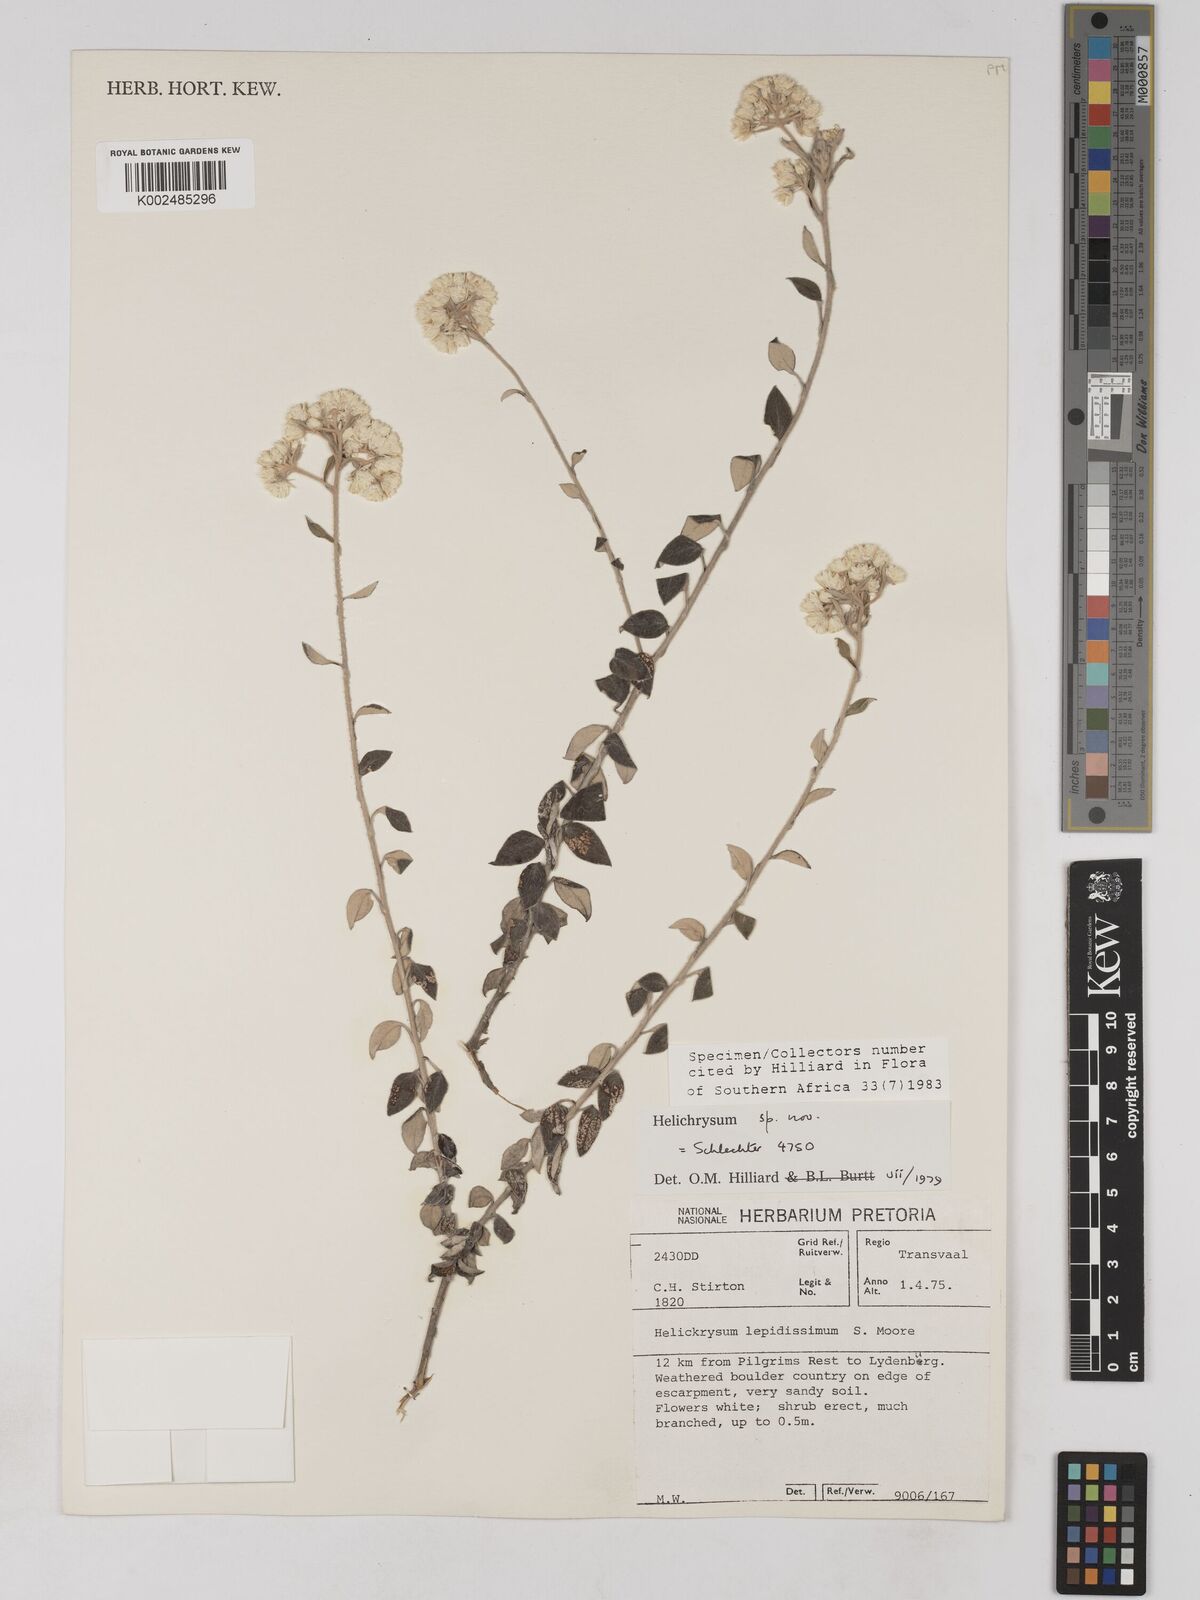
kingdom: Plantae
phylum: Tracheophyta
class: Magnoliopsida
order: Asterales
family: Asteraceae
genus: Helichrysum
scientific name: Helichrysum rudolfii
